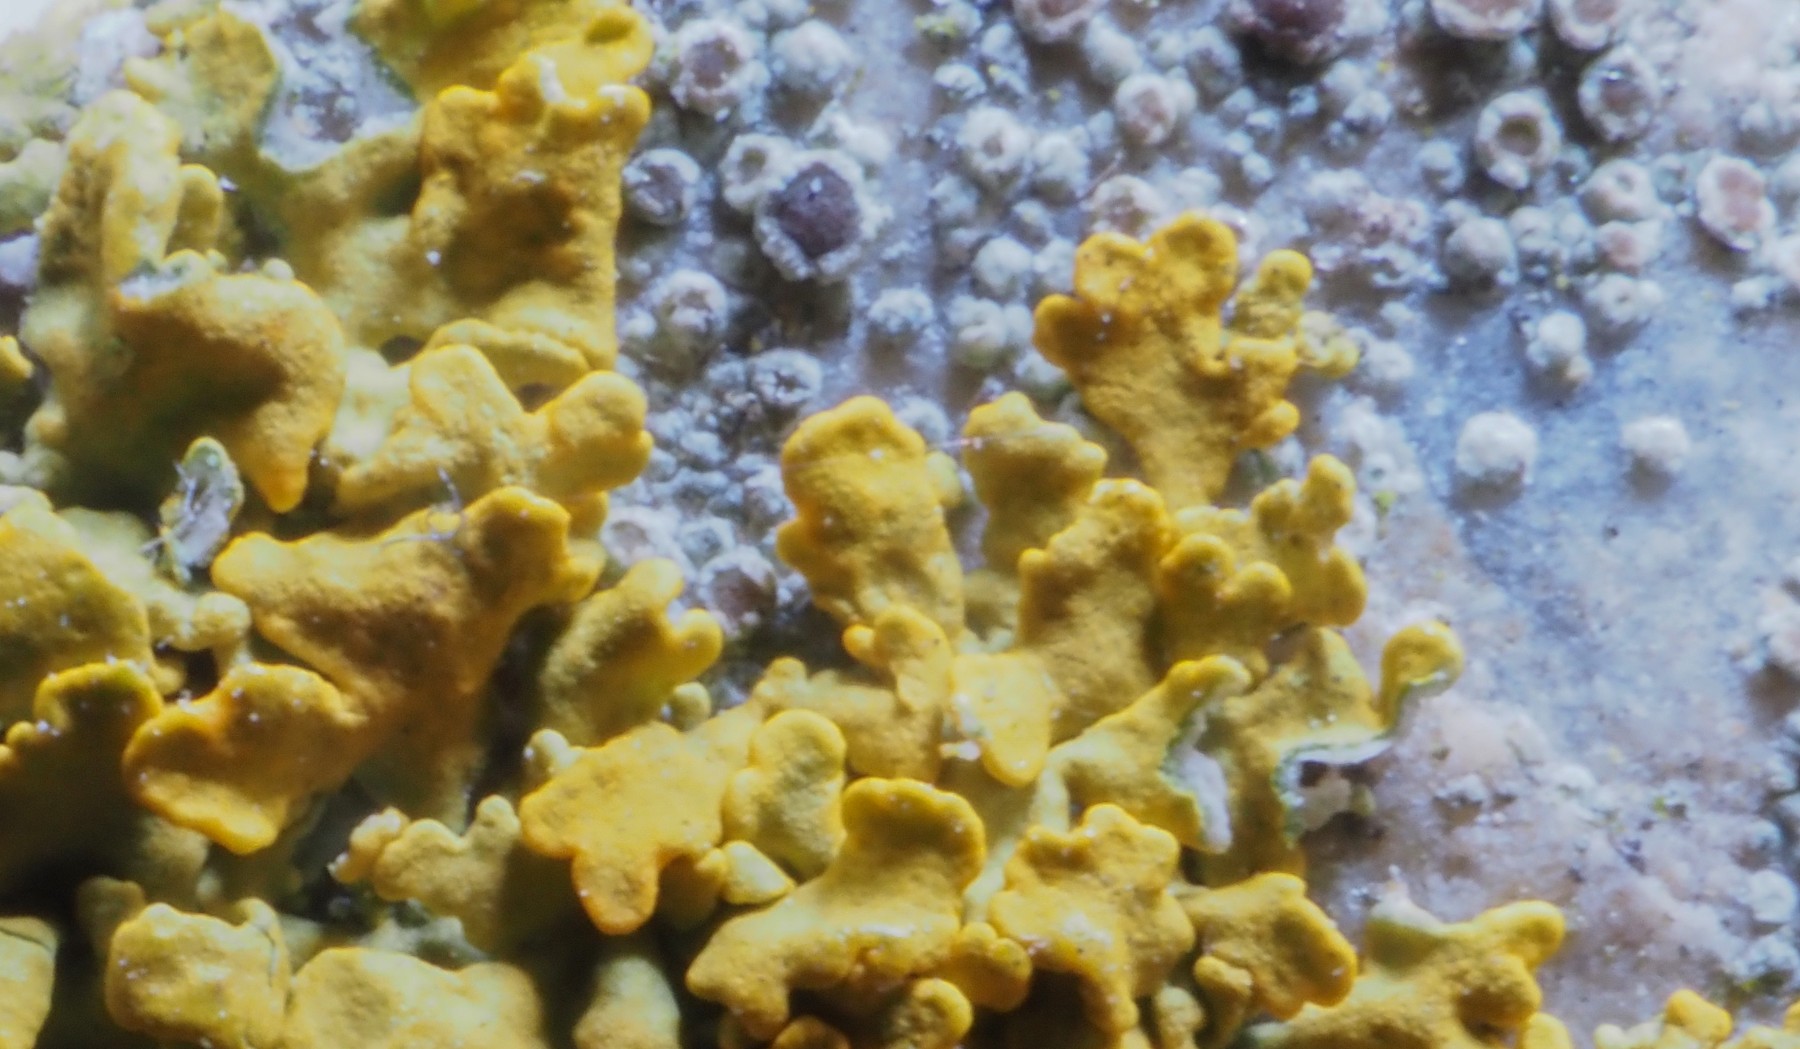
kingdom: Fungi
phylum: Ascomycota
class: Lecanoromycetes
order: Lecanorales
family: Lecanoraceae
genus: Polyozosia
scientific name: Polyozosia bandolensis
